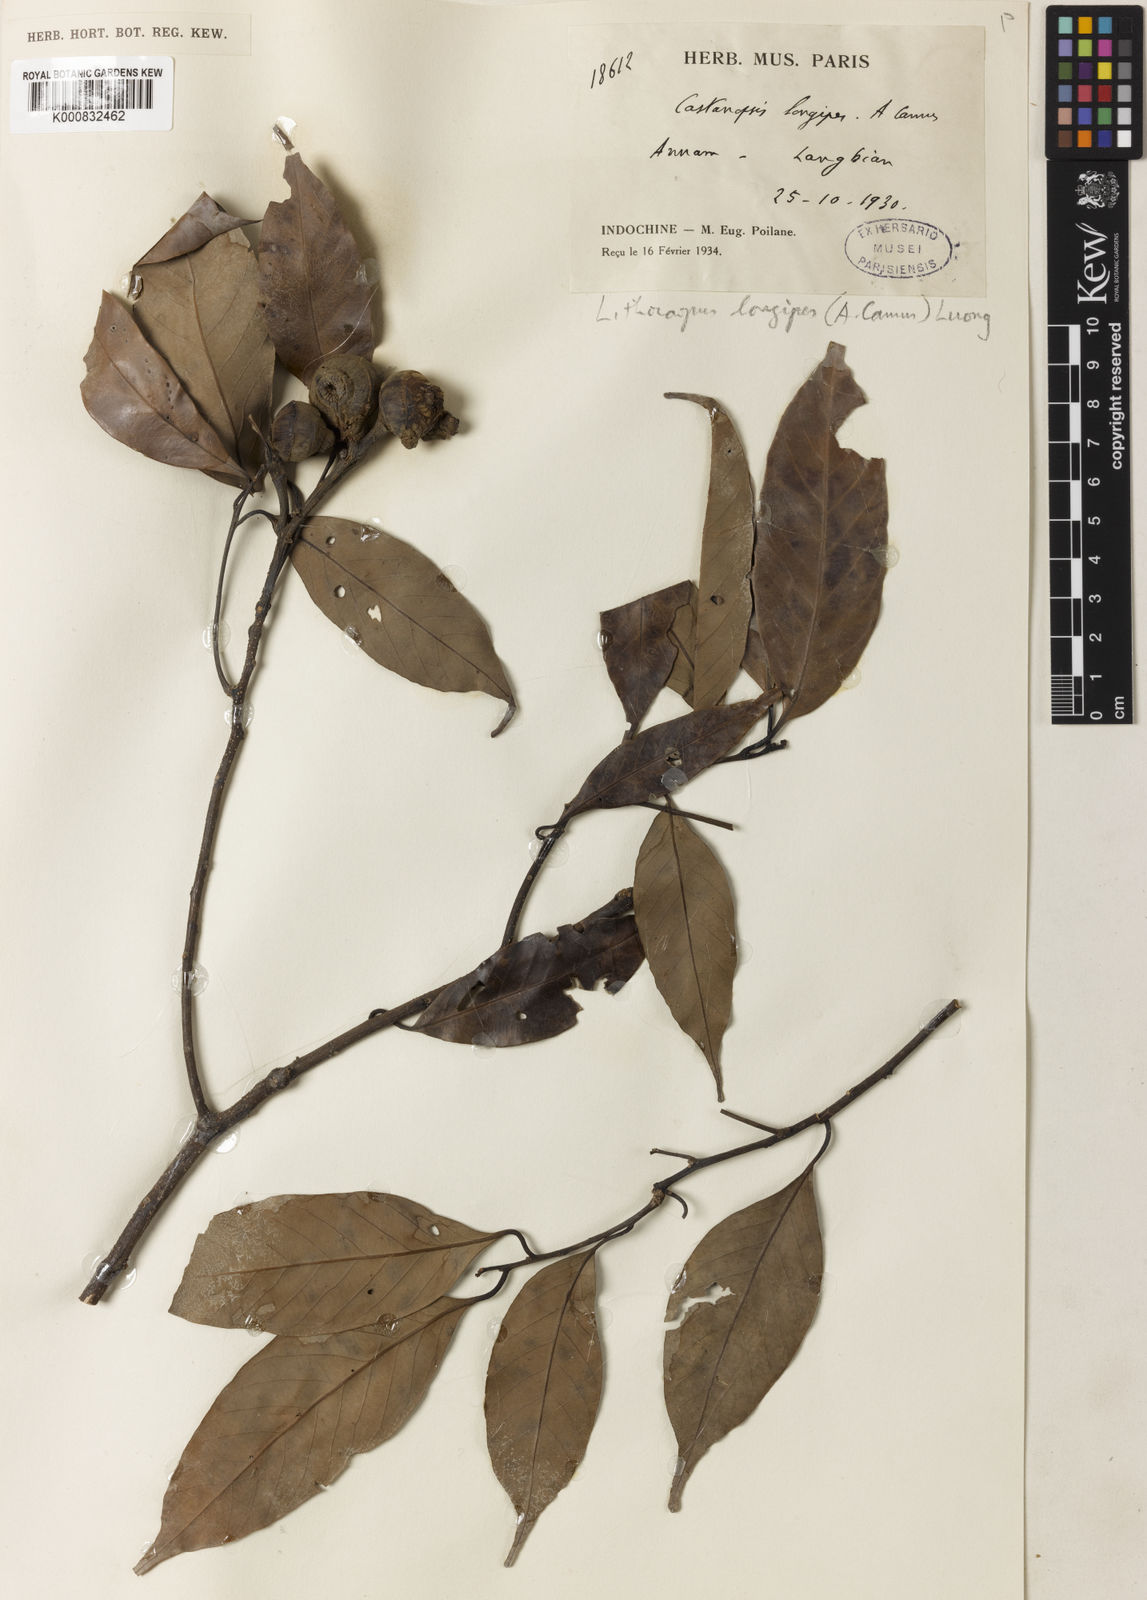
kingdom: Plantae
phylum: Tracheophyta
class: Magnoliopsida
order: Fagales
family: Fagaceae
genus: Castanopsis
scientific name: Castanopsis longipes
